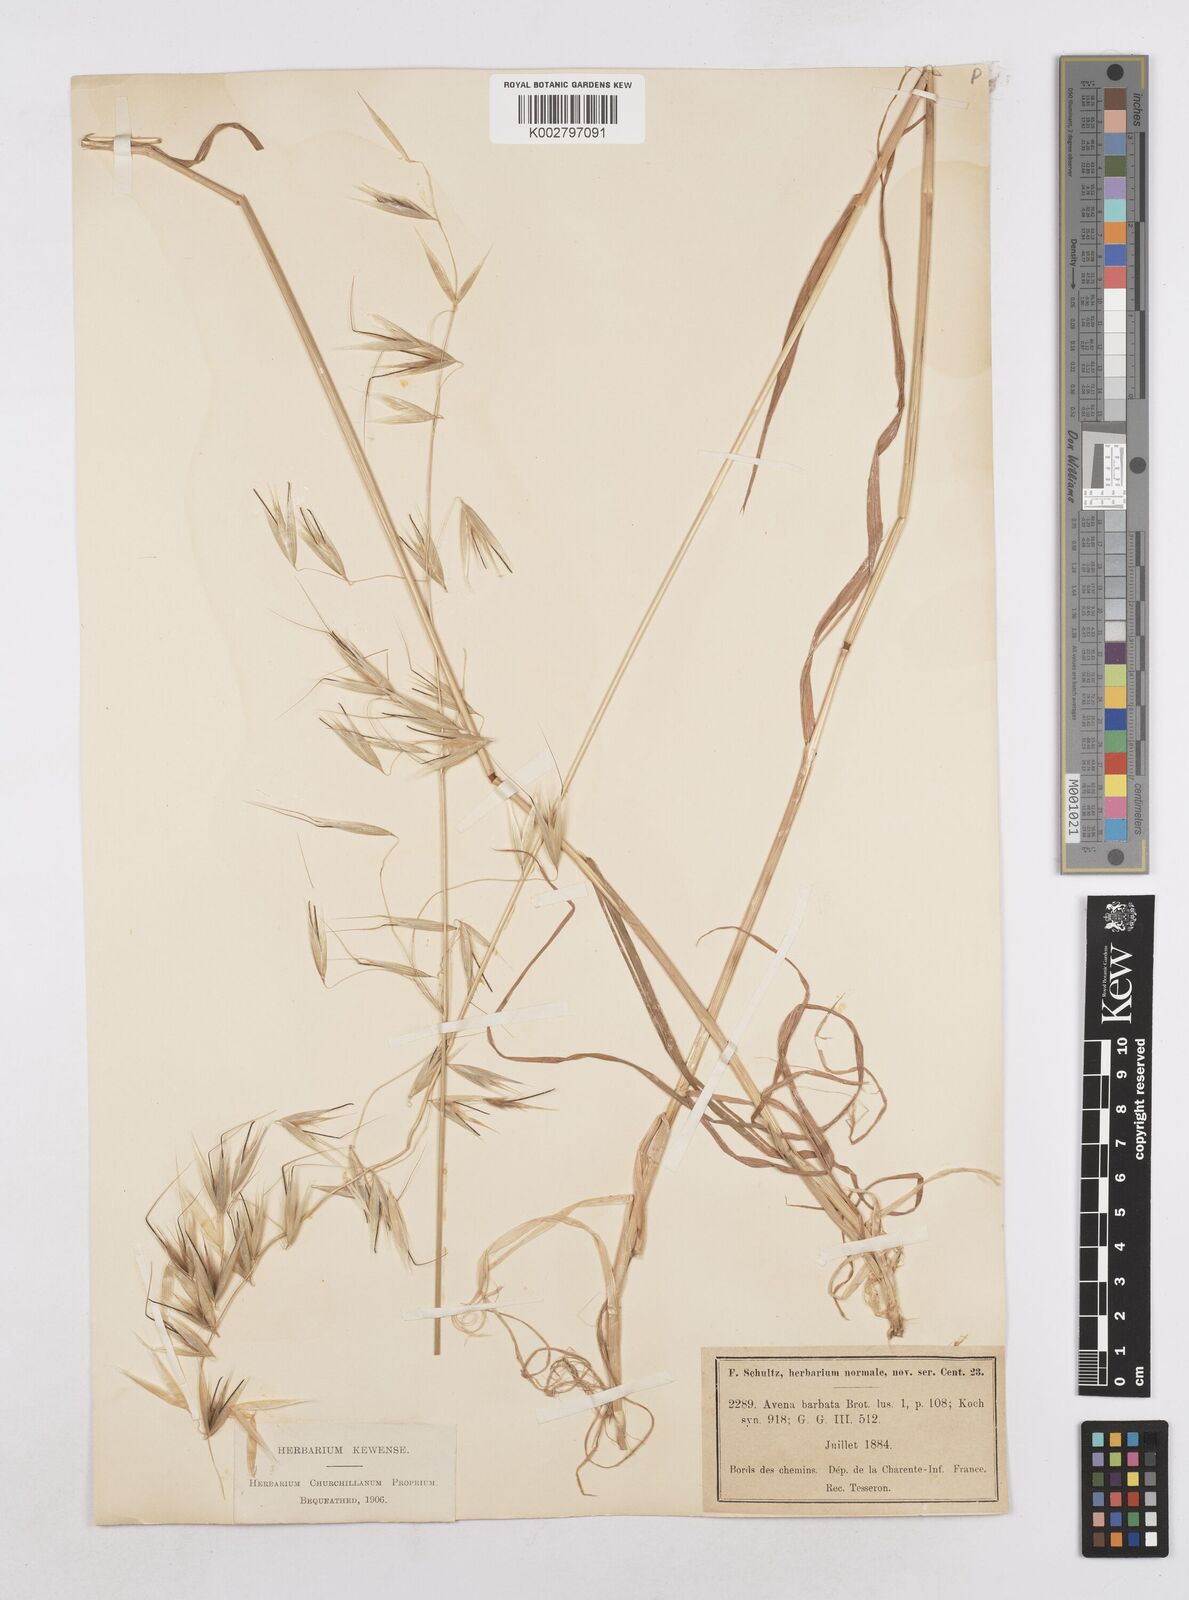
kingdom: Plantae
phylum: Tracheophyta
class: Liliopsida
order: Poales
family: Poaceae
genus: Avena
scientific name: Avena
